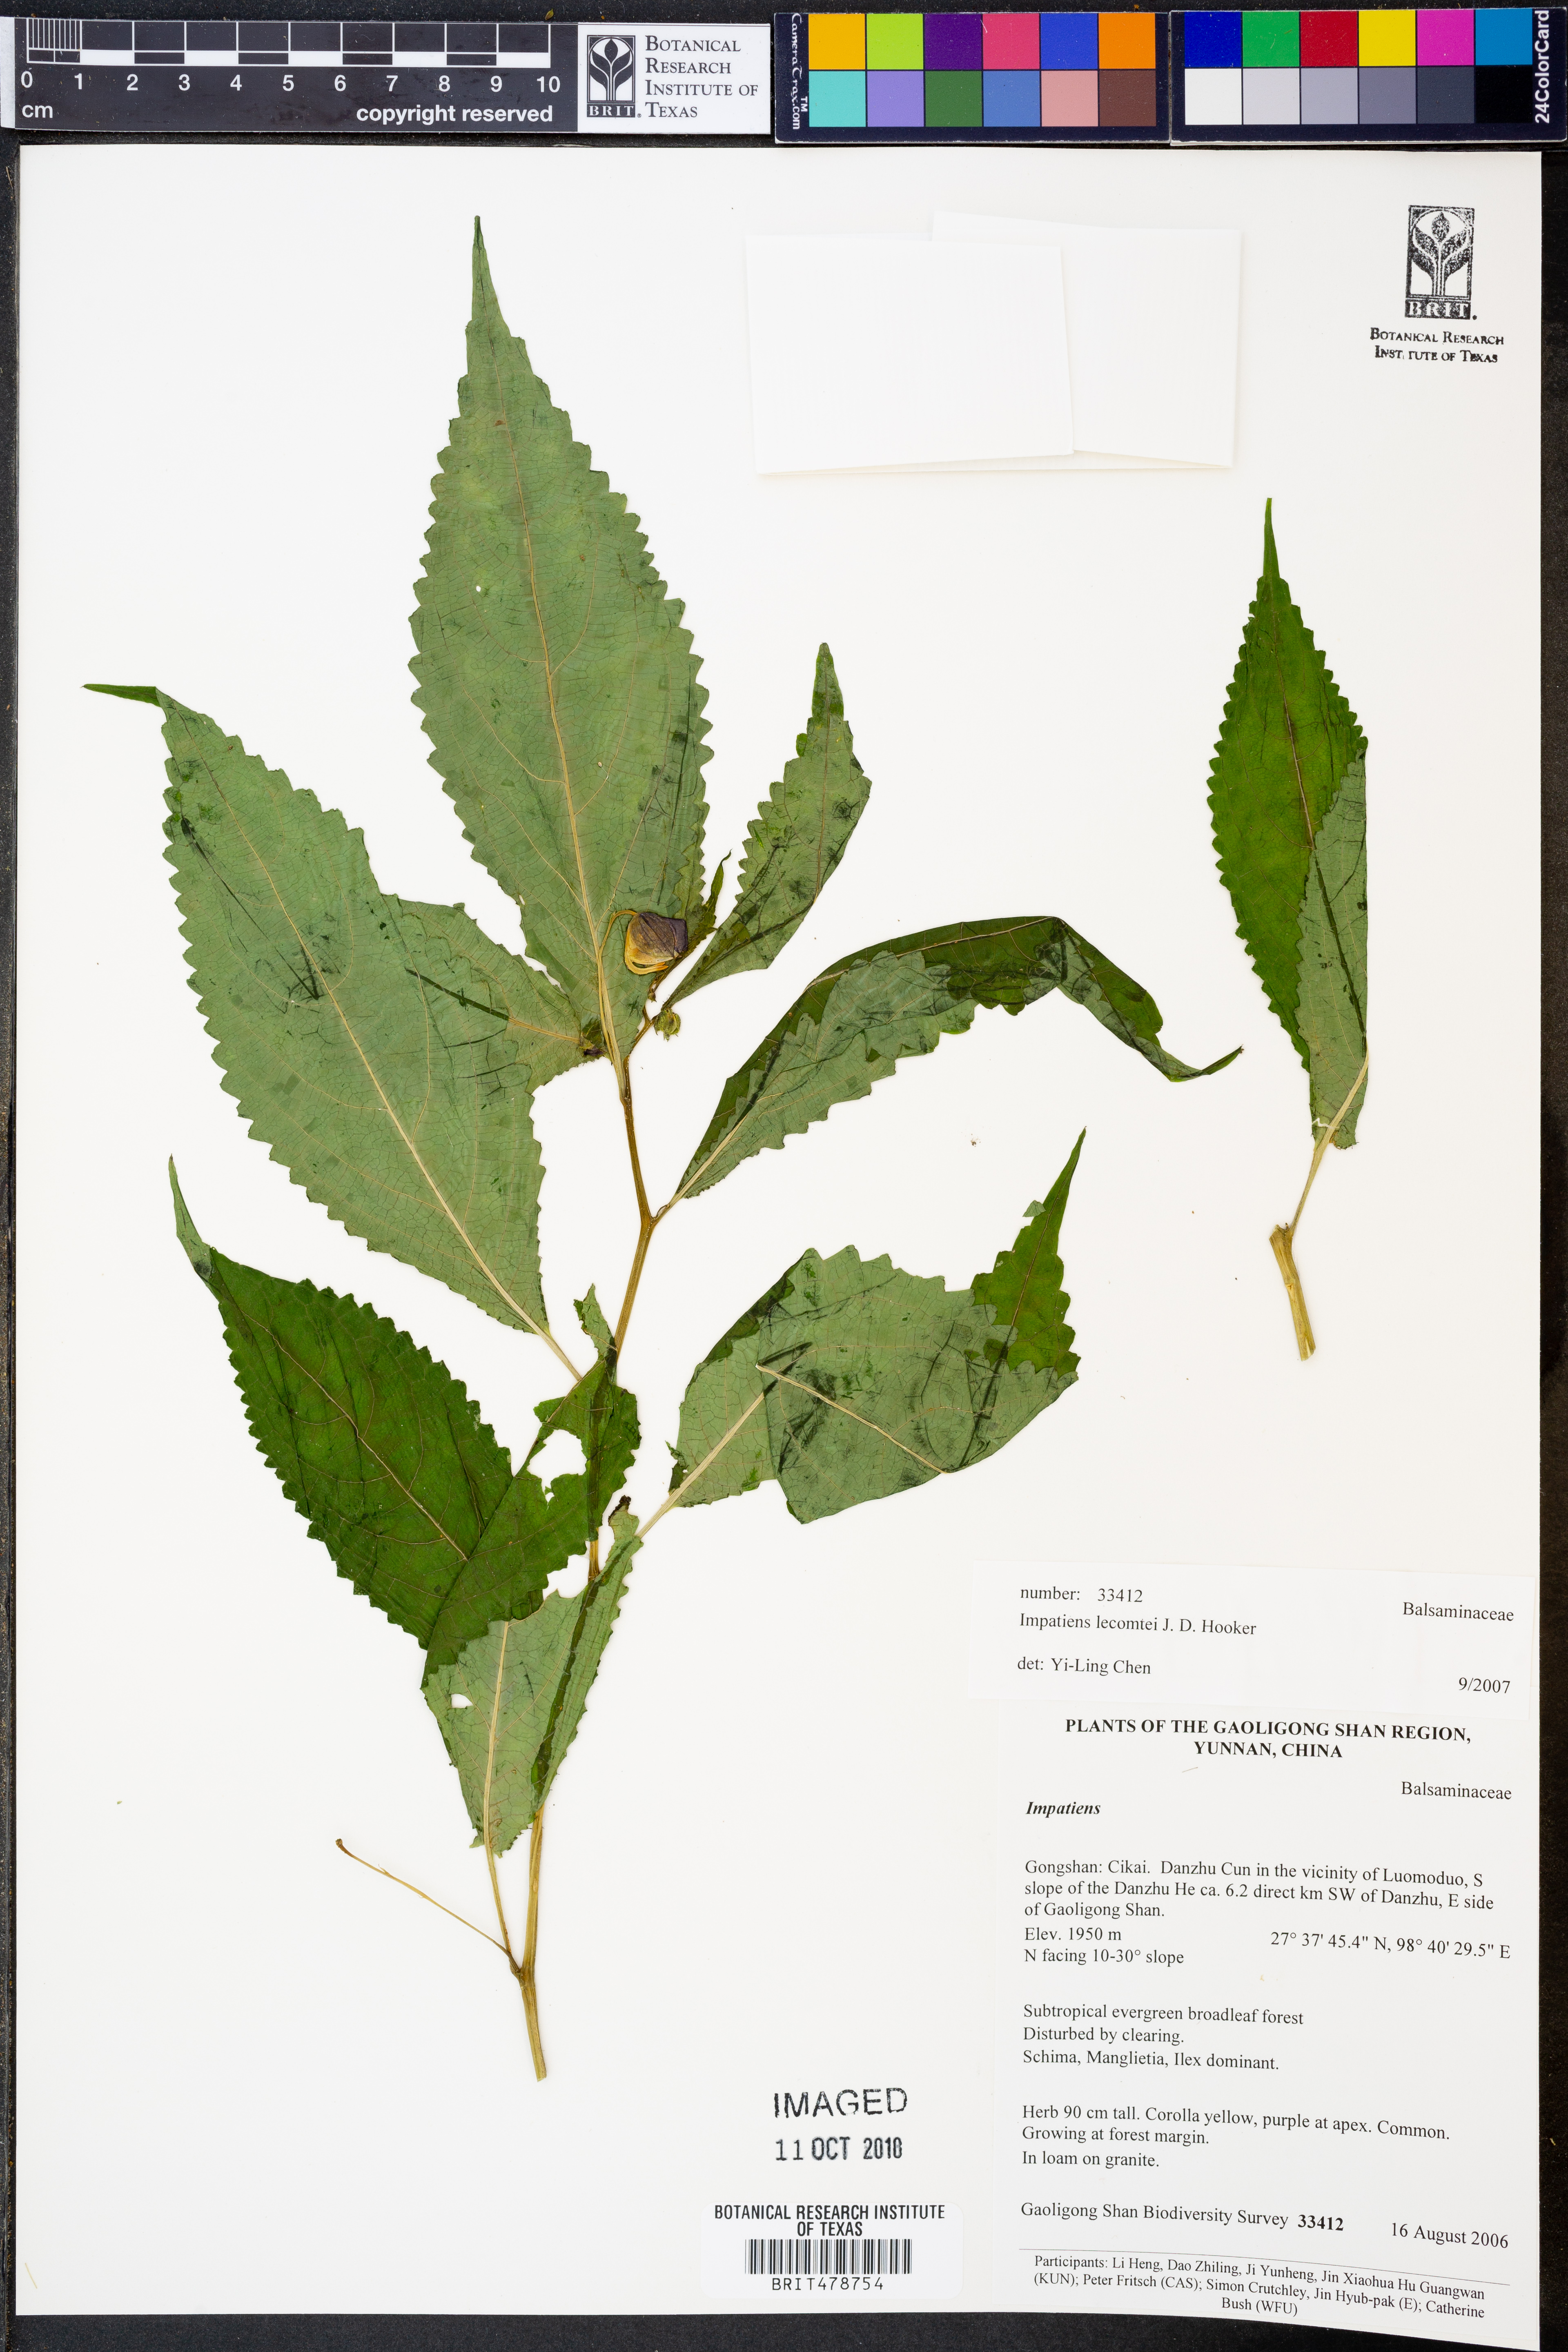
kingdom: Plantae
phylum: Tracheophyta
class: Magnoliopsida
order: Ericales
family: Balsaminaceae
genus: Impatiens
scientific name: Impatiens lecomtei
